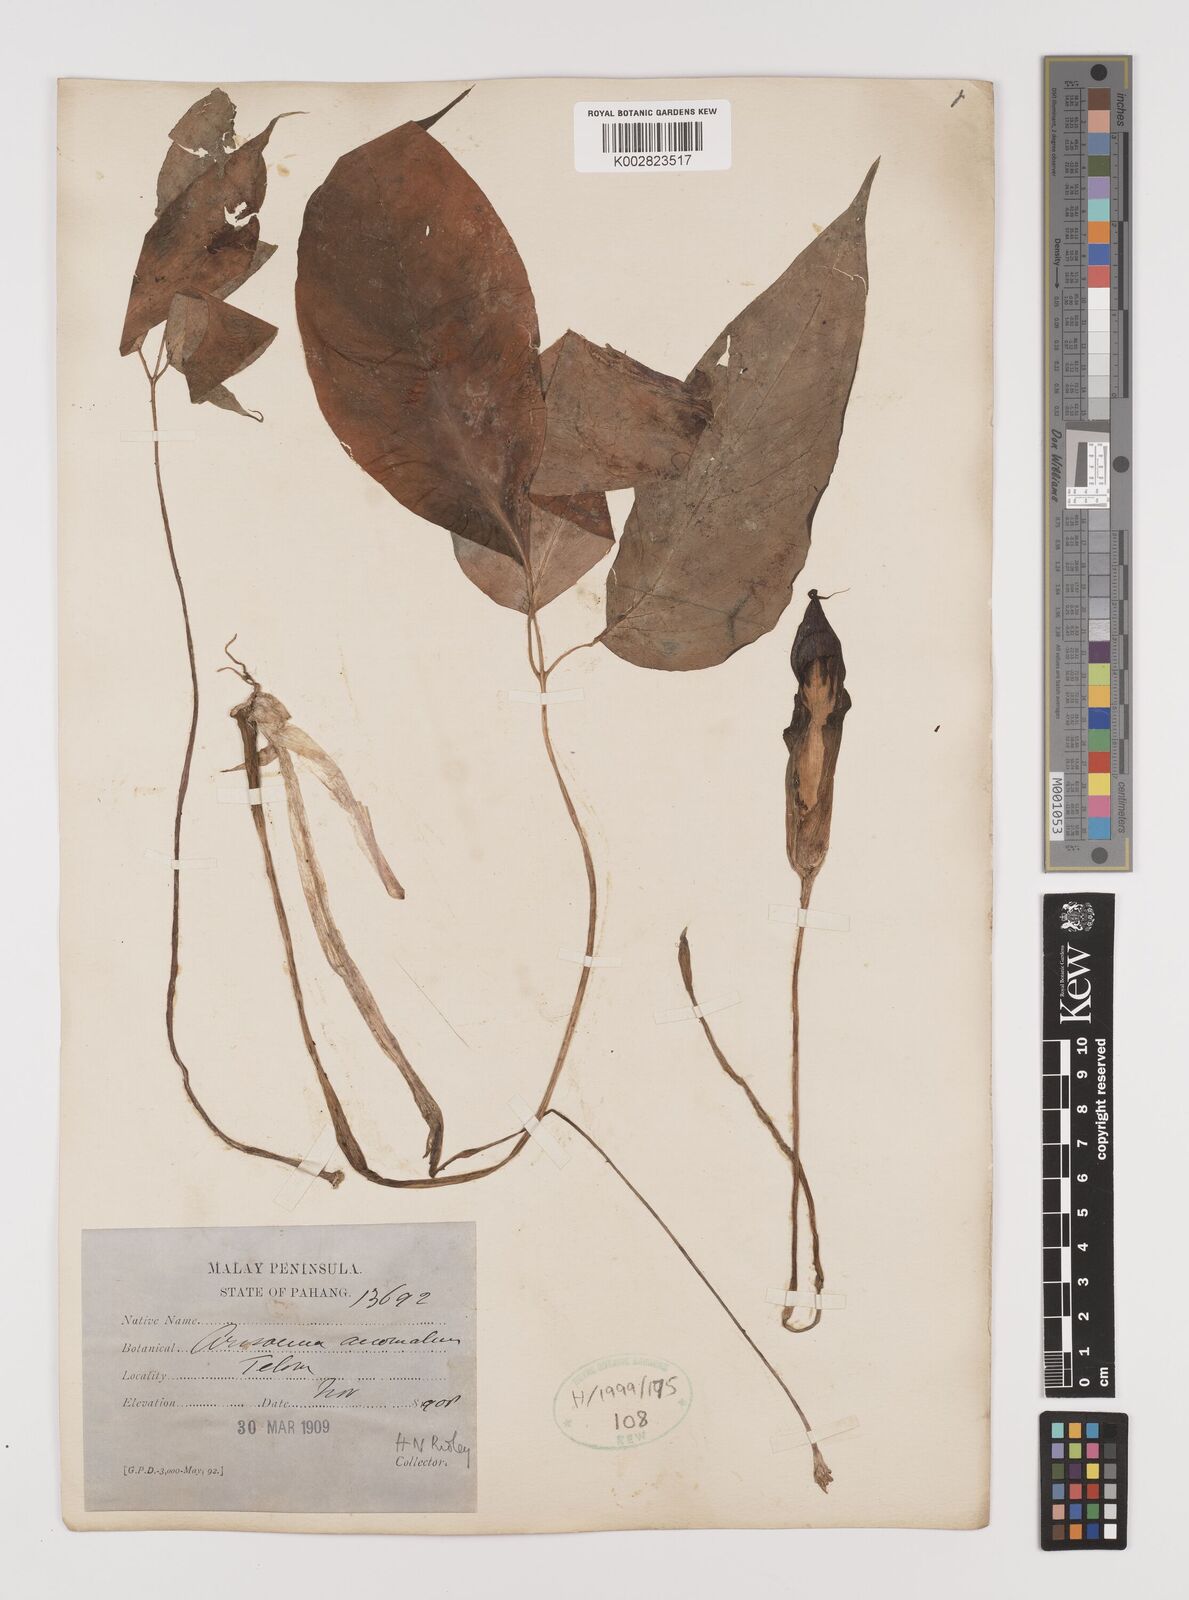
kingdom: Plantae
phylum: Tracheophyta
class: Liliopsida
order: Alismatales
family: Araceae
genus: Arisaema
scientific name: Arisaema anomalum
